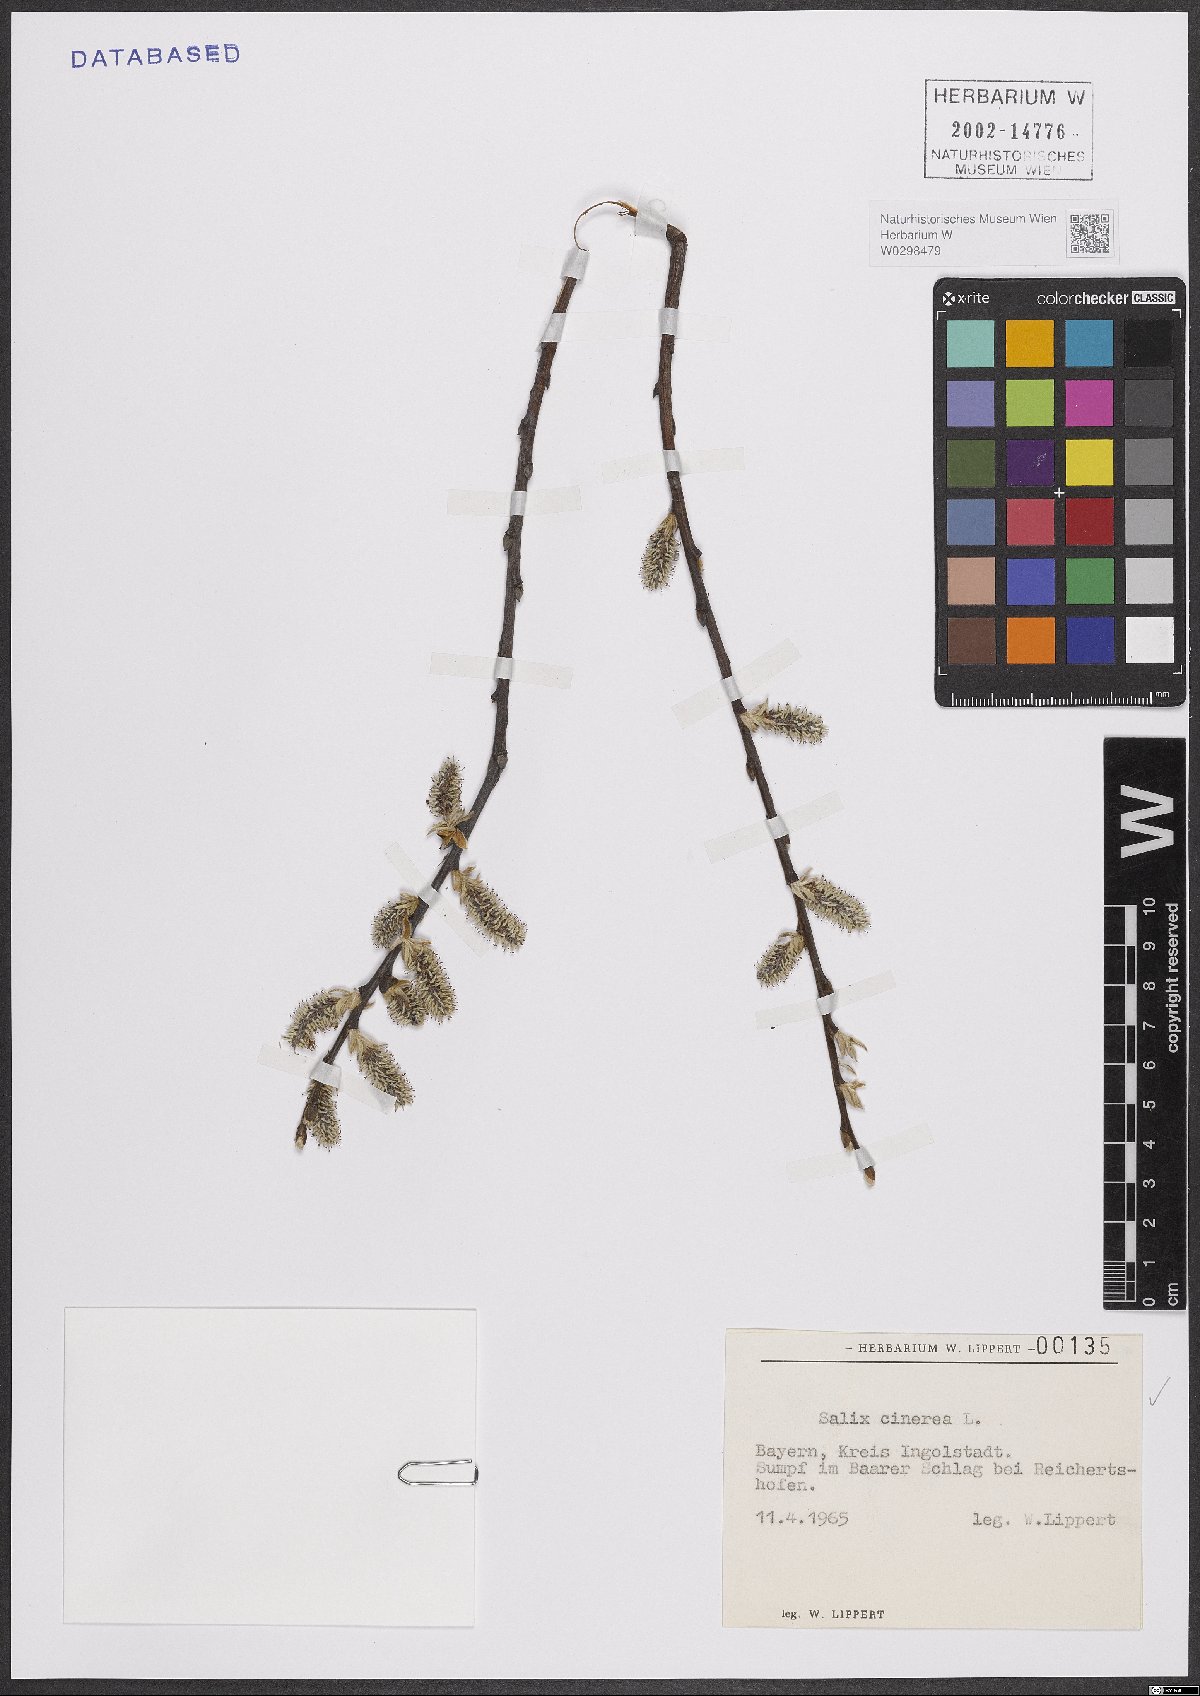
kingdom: Plantae
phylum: Tracheophyta
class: Magnoliopsida
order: Malpighiales
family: Salicaceae
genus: Salix
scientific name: Salix cinerea
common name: Common sallow
